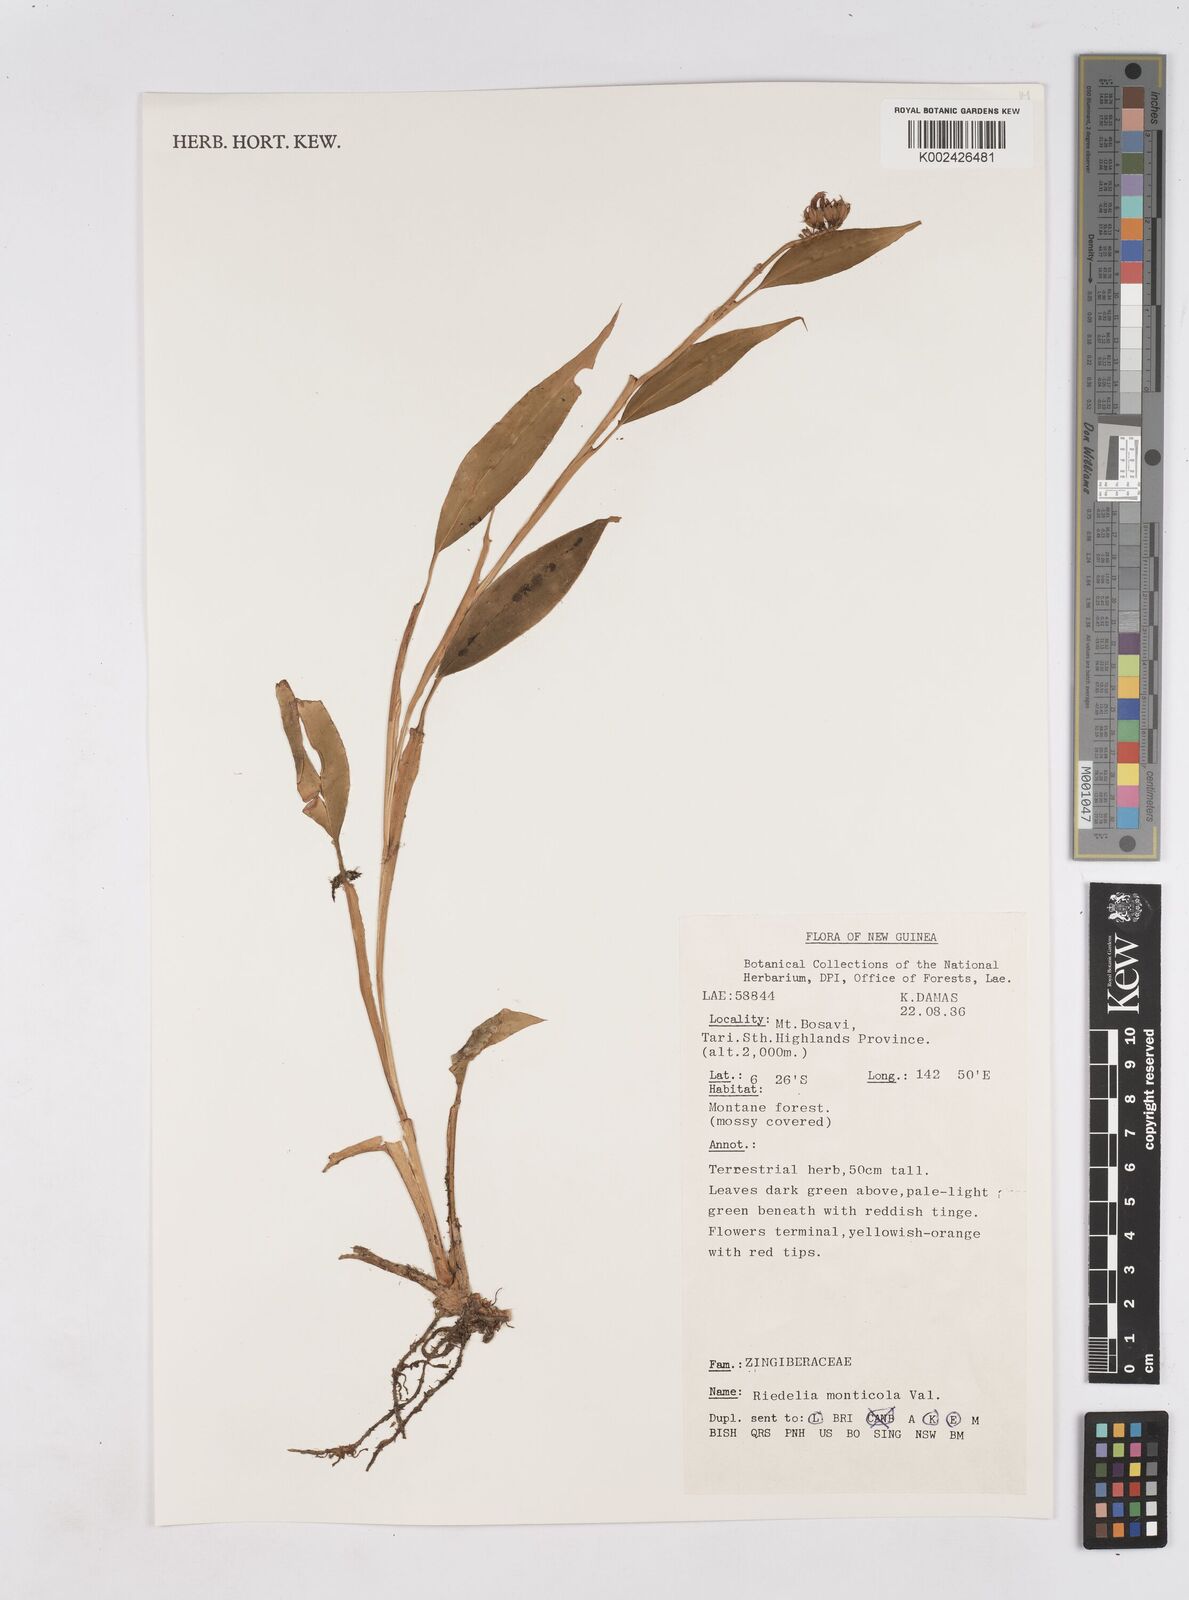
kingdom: Plantae
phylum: Tracheophyta
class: Liliopsida
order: Zingiberales
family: Zingiberaceae
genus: Riedelia
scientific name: Riedelia monticola
